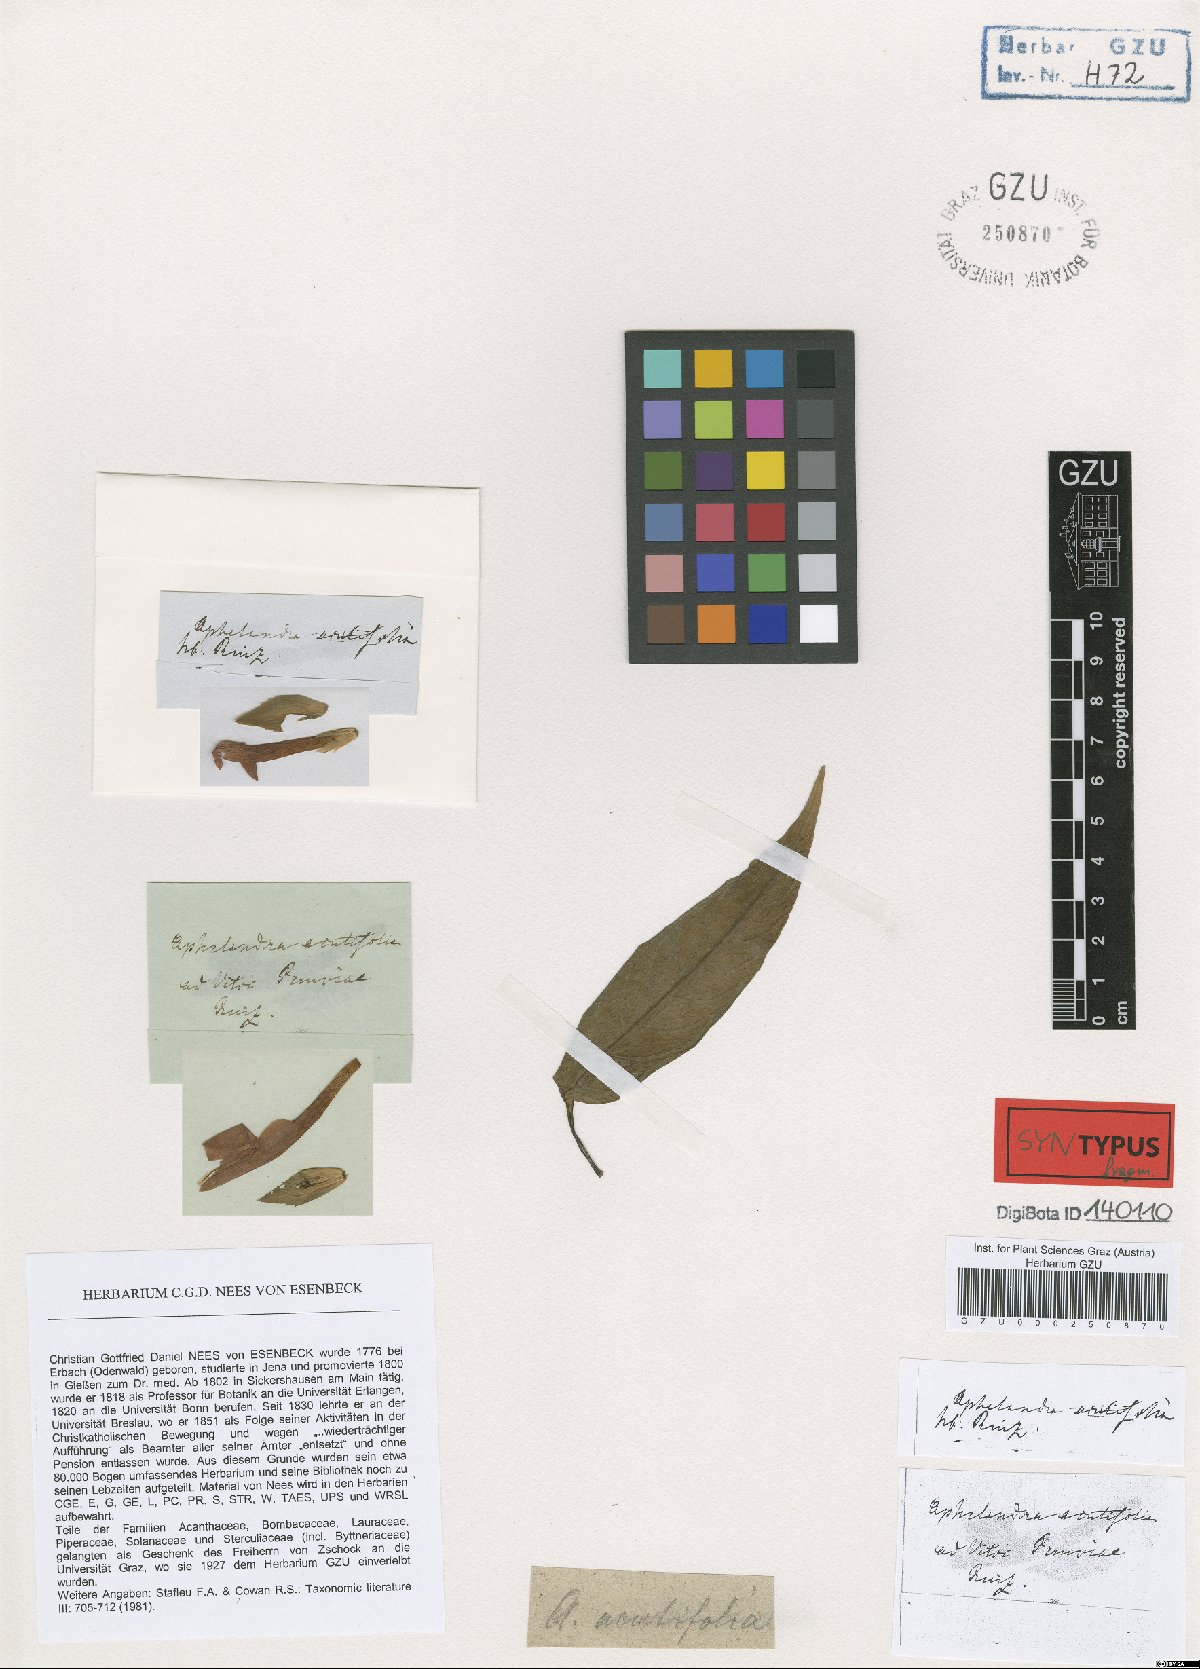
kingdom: Plantae
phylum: Tracheophyta
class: Magnoliopsida
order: Lamiales
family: Acanthaceae
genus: Aphelandra
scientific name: Aphelandra aurantiaca
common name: Fiery spike
